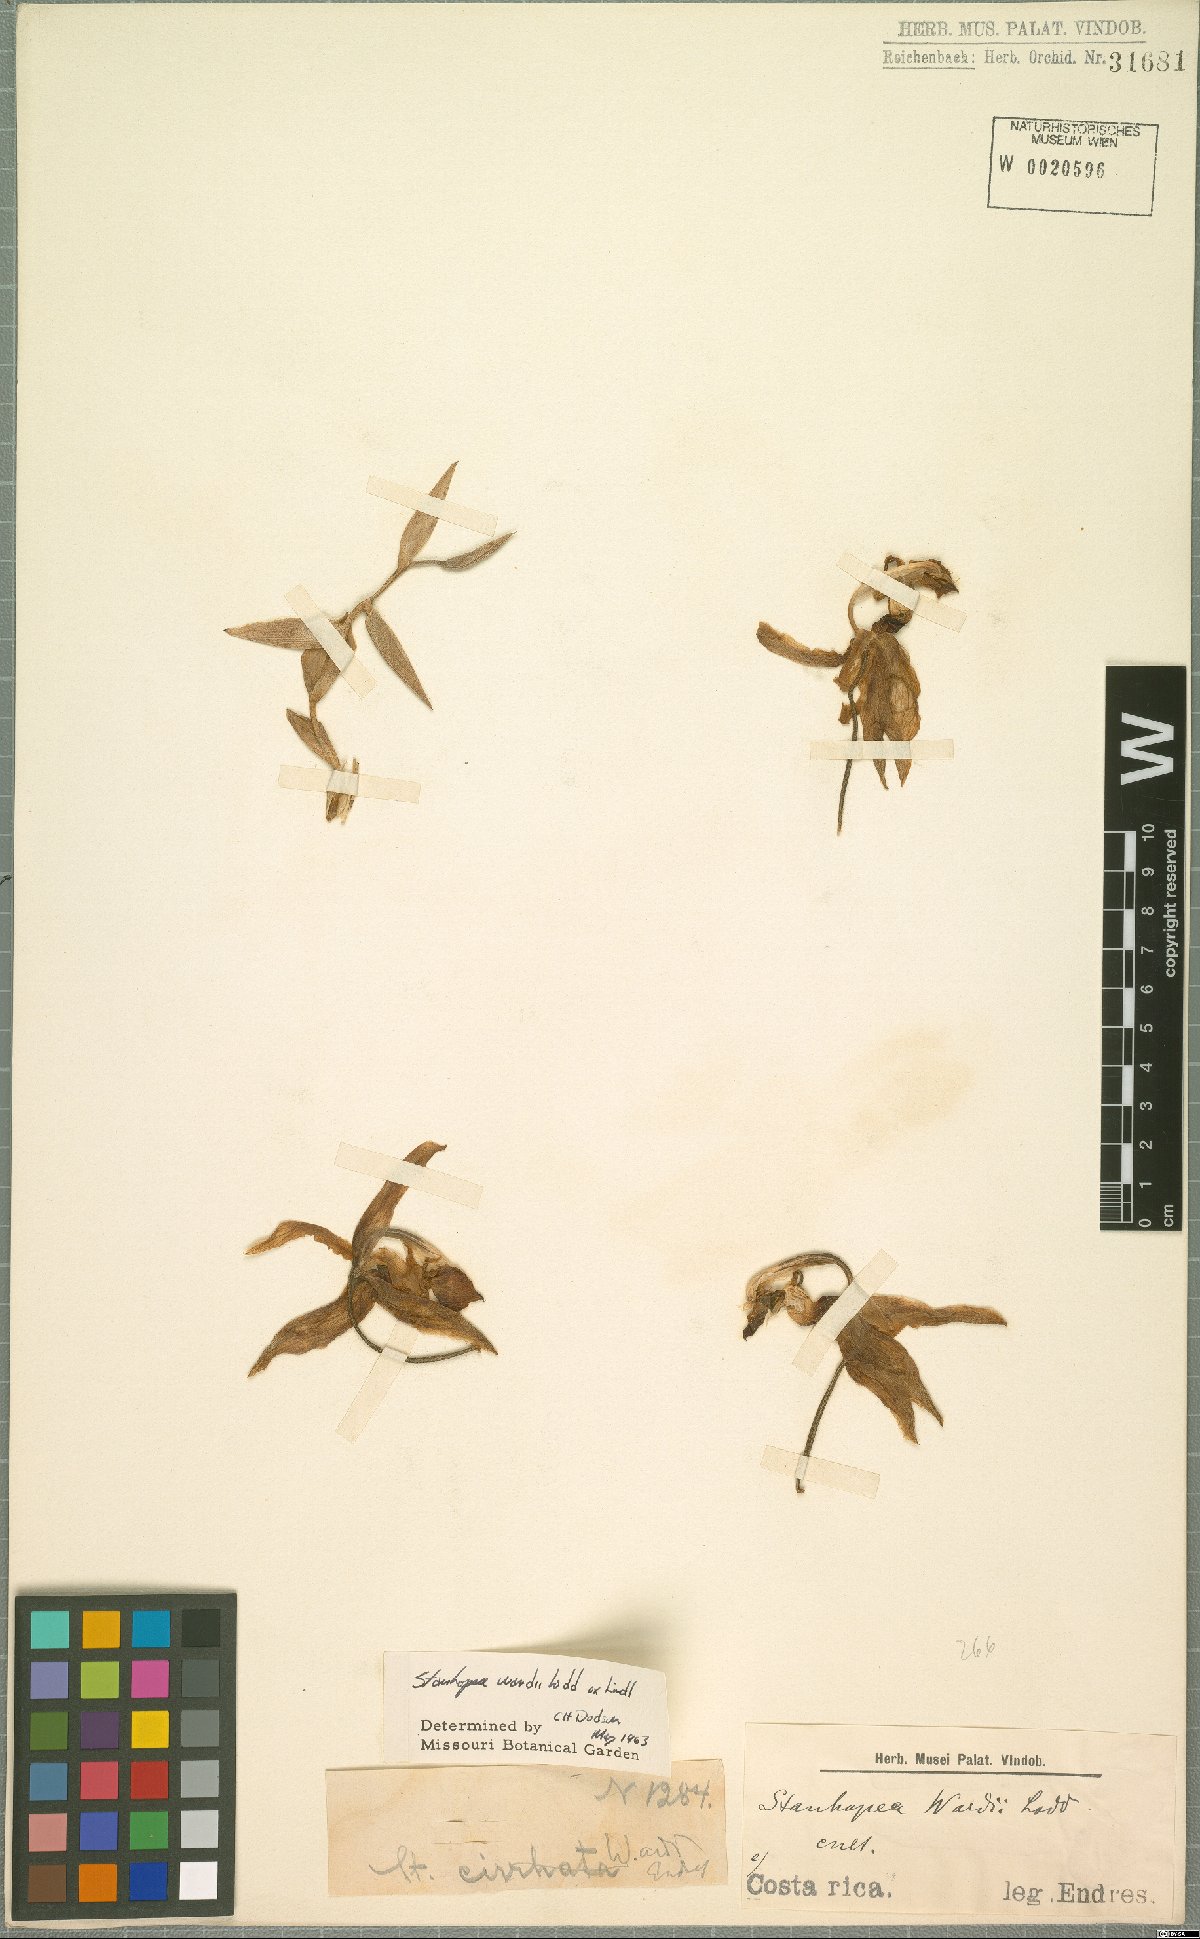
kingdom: Plantae
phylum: Tracheophyta
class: Liliopsida
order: Asparagales
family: Orchidaceae
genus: Stanhopea
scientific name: Stanhopea wardii
